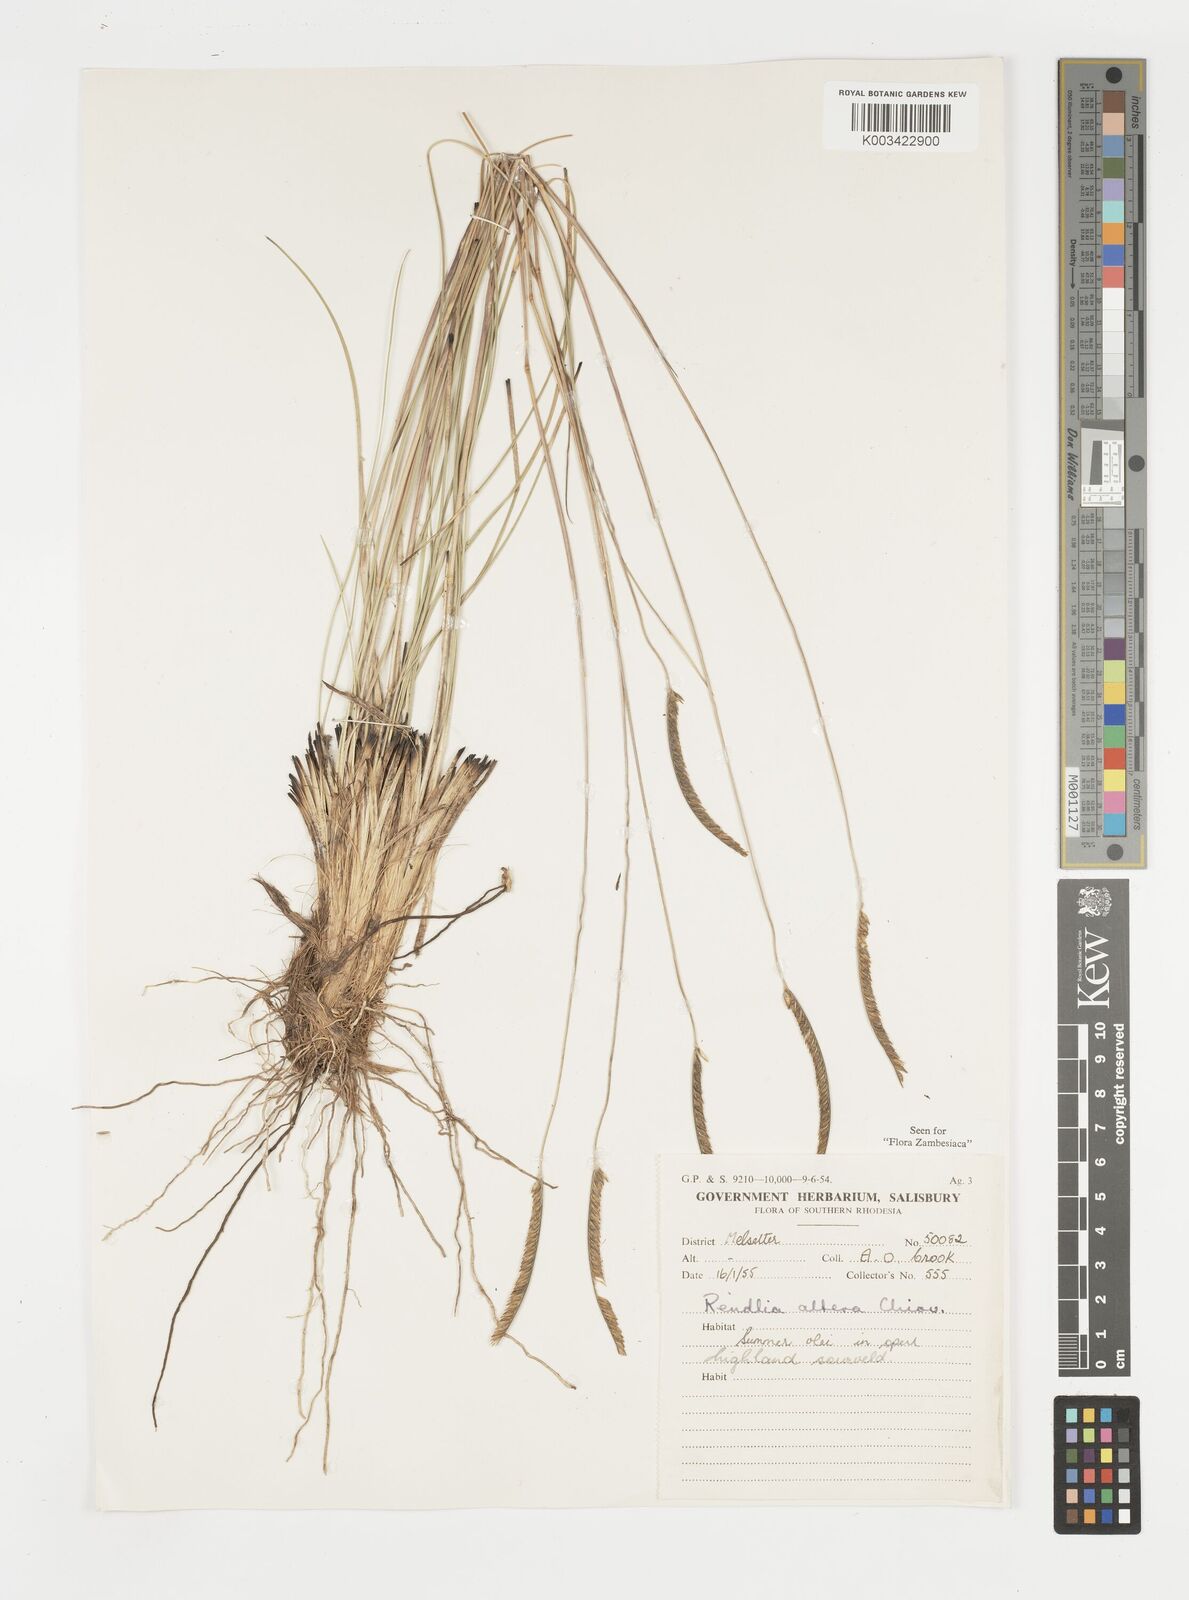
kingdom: Plantae
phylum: Tracheophyta
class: Liliopsida
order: Poales
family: Poaceae
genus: Microchloa
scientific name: Microchloa altera
